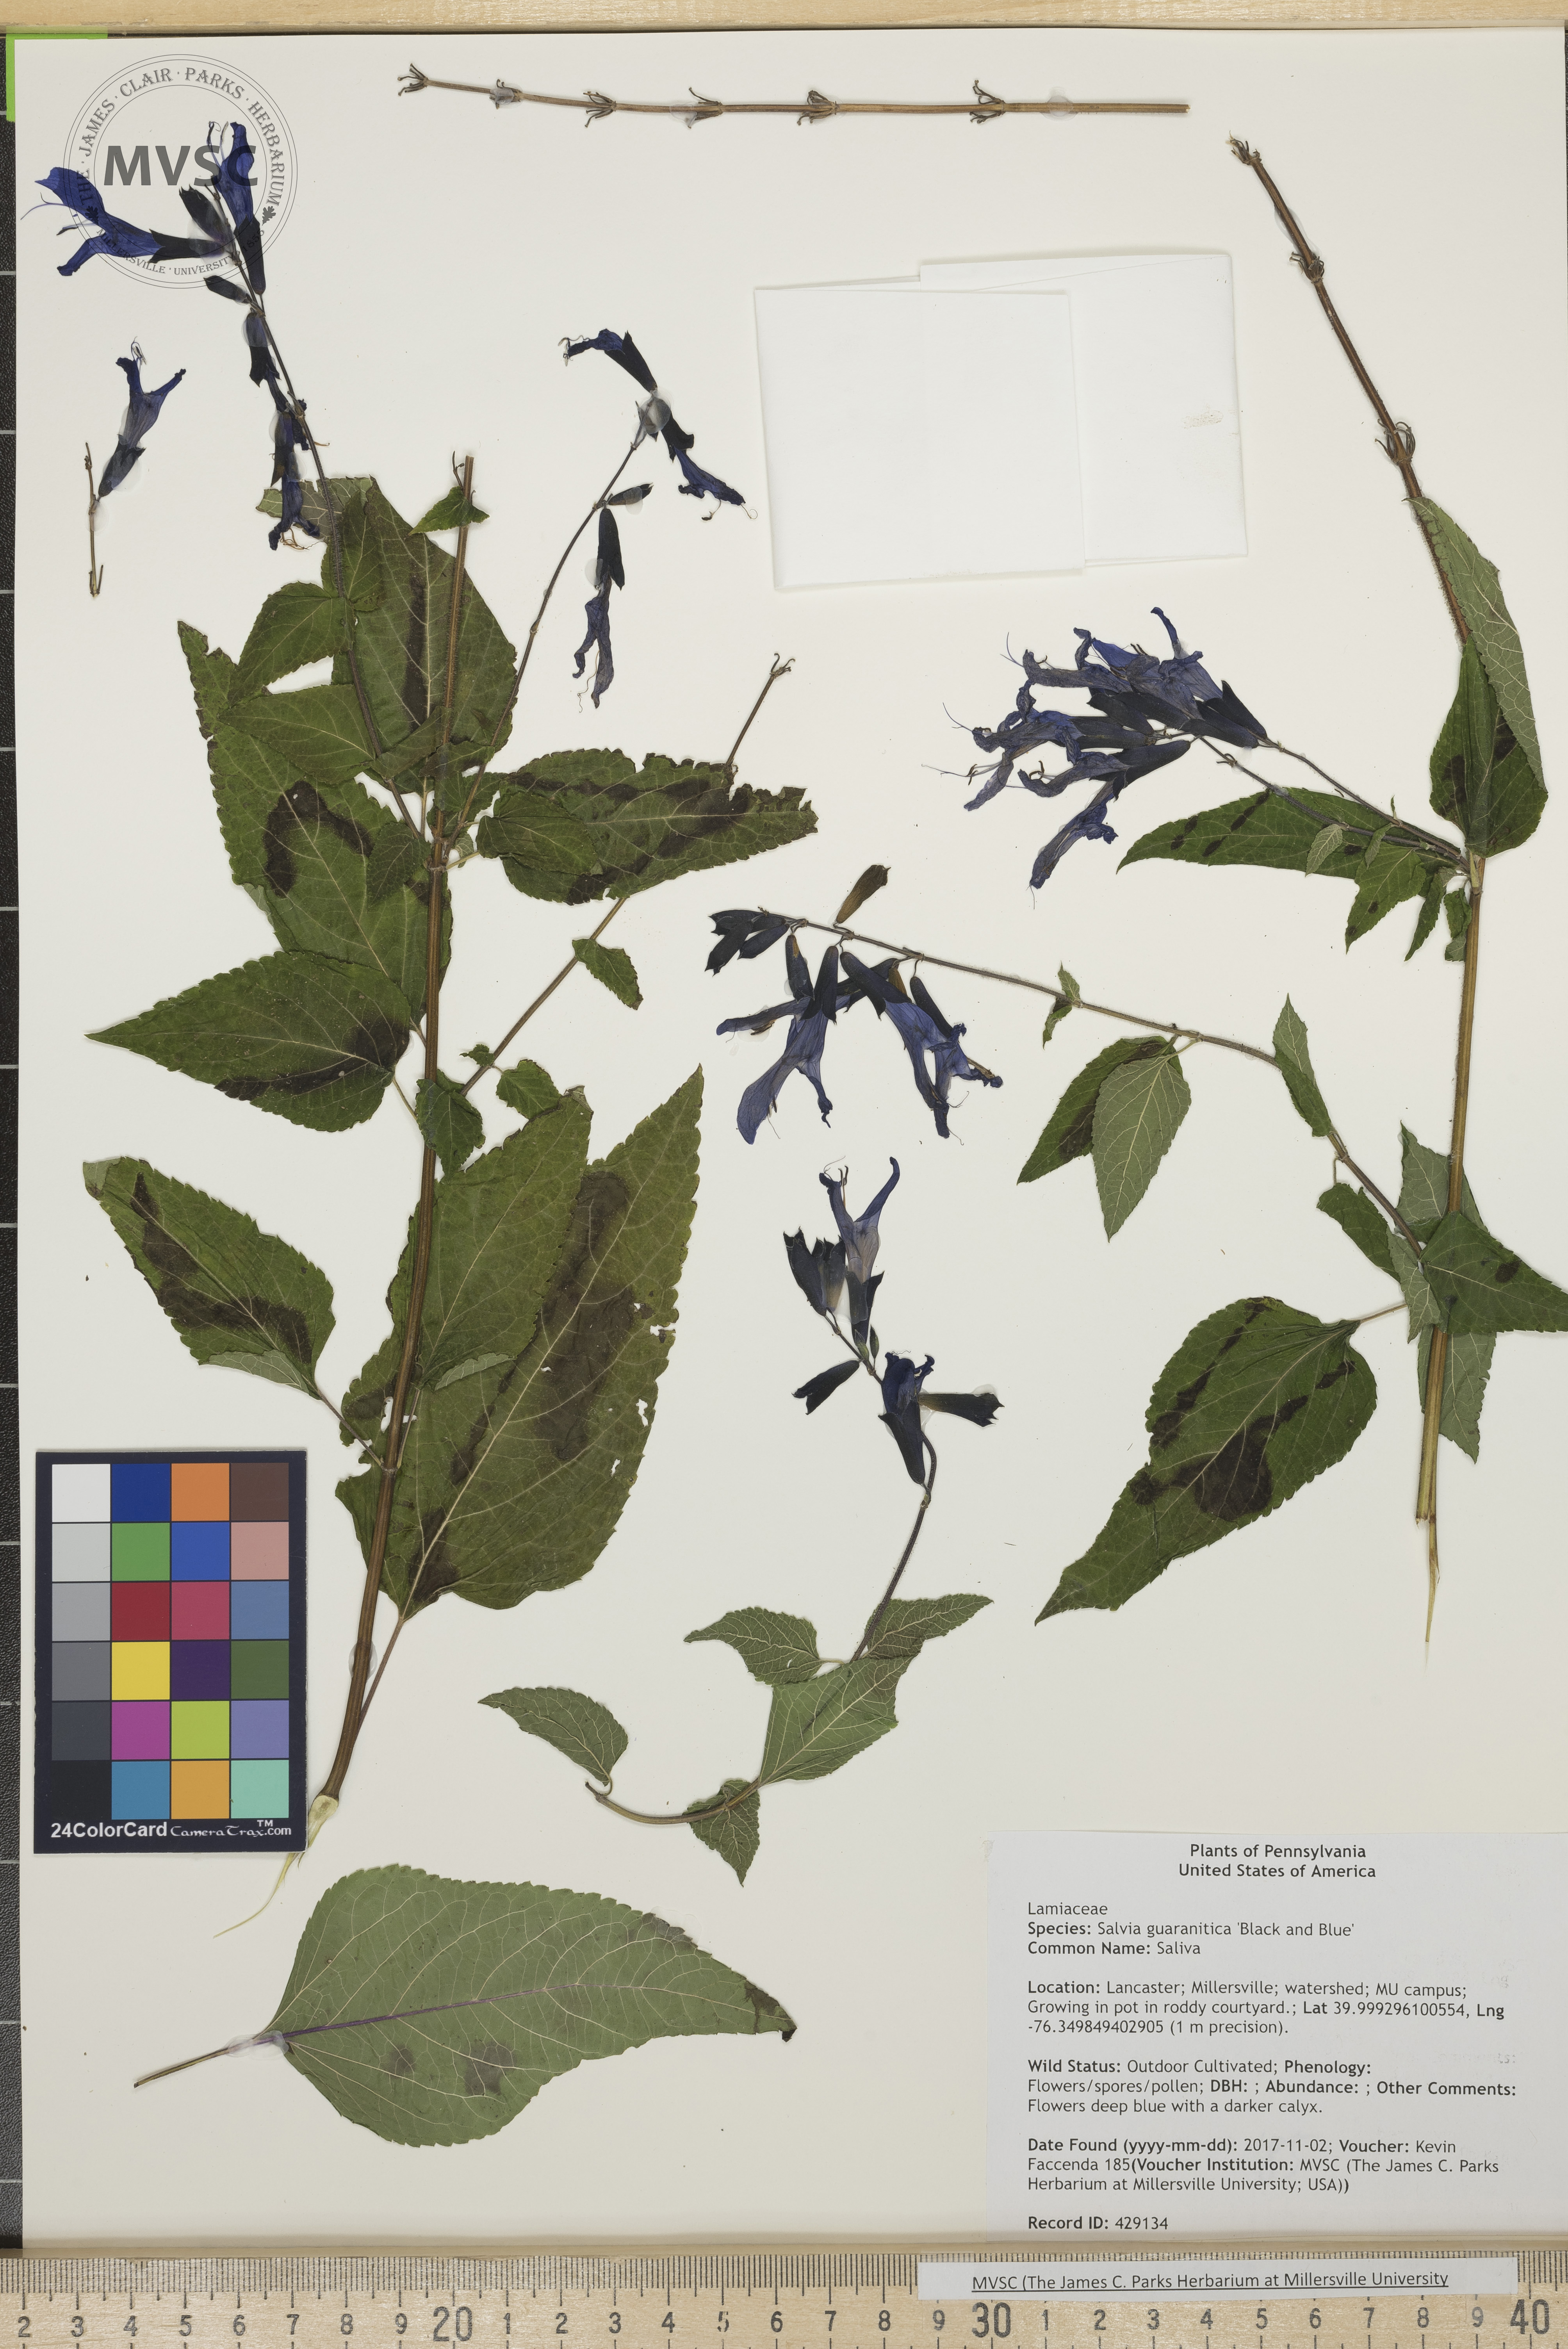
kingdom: Plantae
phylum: Tracheophyta
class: Magnoliopsida
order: Lamiales
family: Lamiaceae
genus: Salvia
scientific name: Salvia guaranitica
